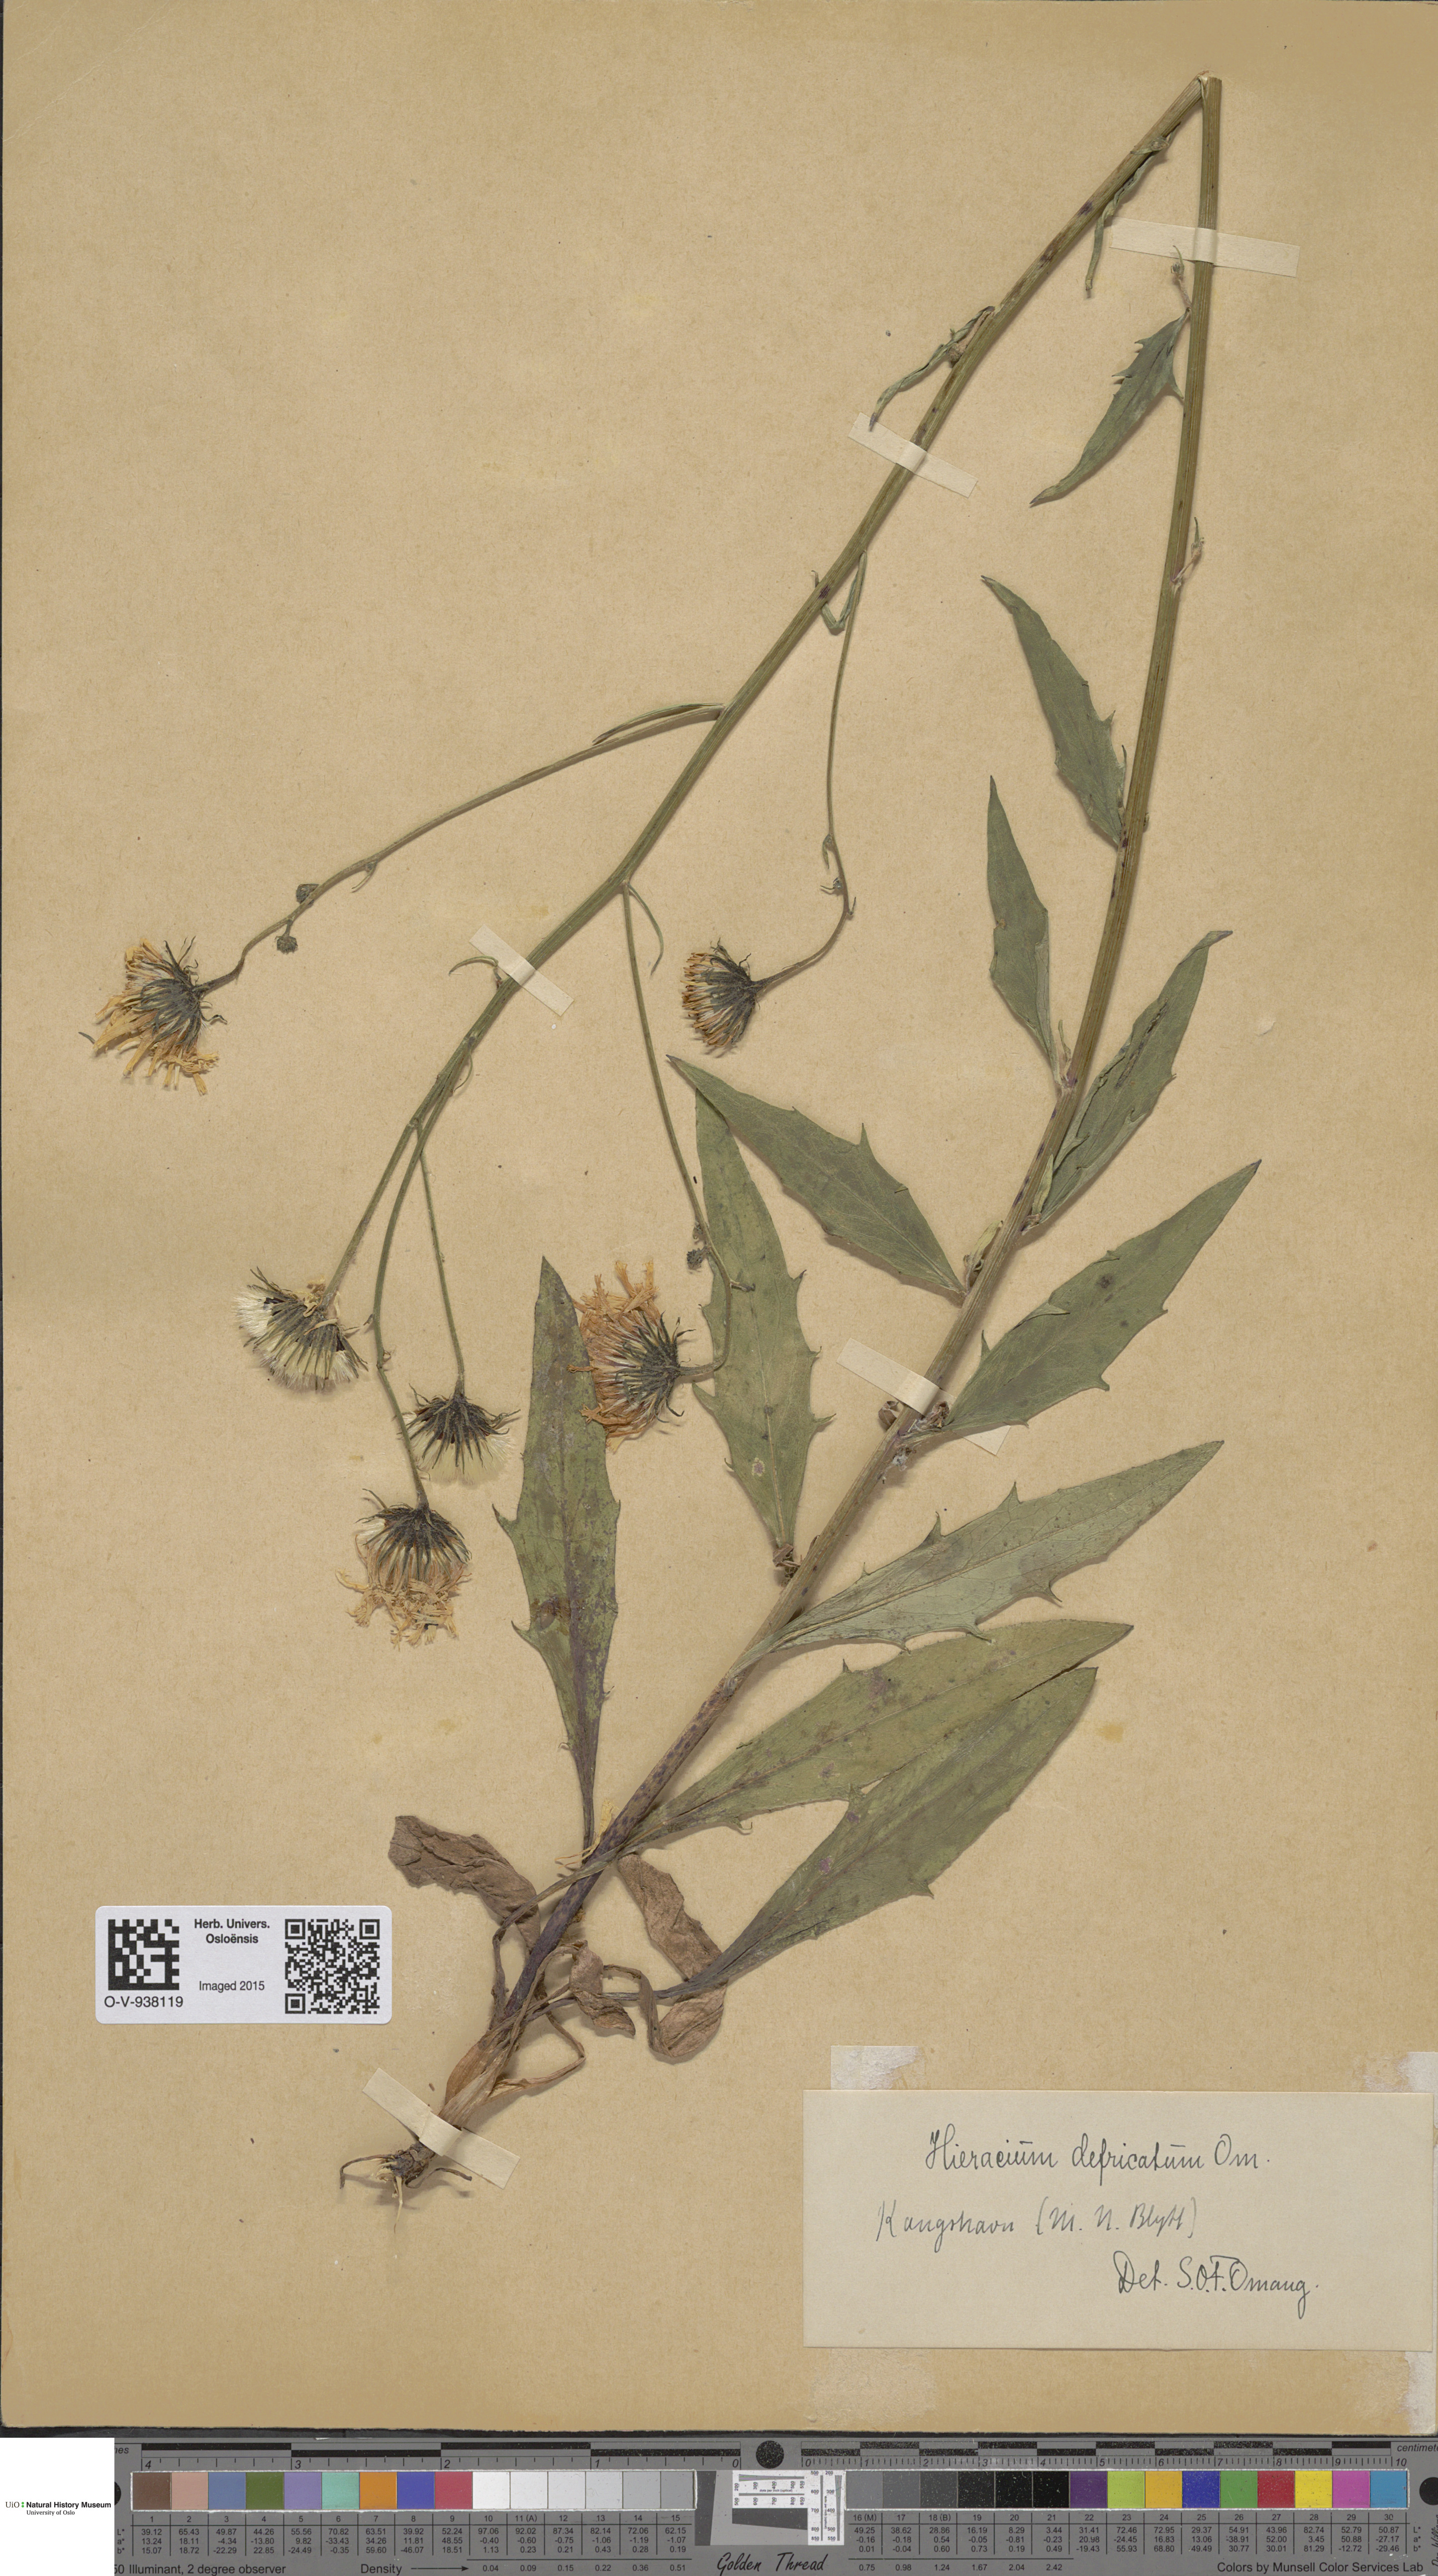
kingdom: Plantae
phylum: Tracheophyta
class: Magnoliopsida
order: Asterales
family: Asteraceae
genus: Hieracium
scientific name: Hieracium
